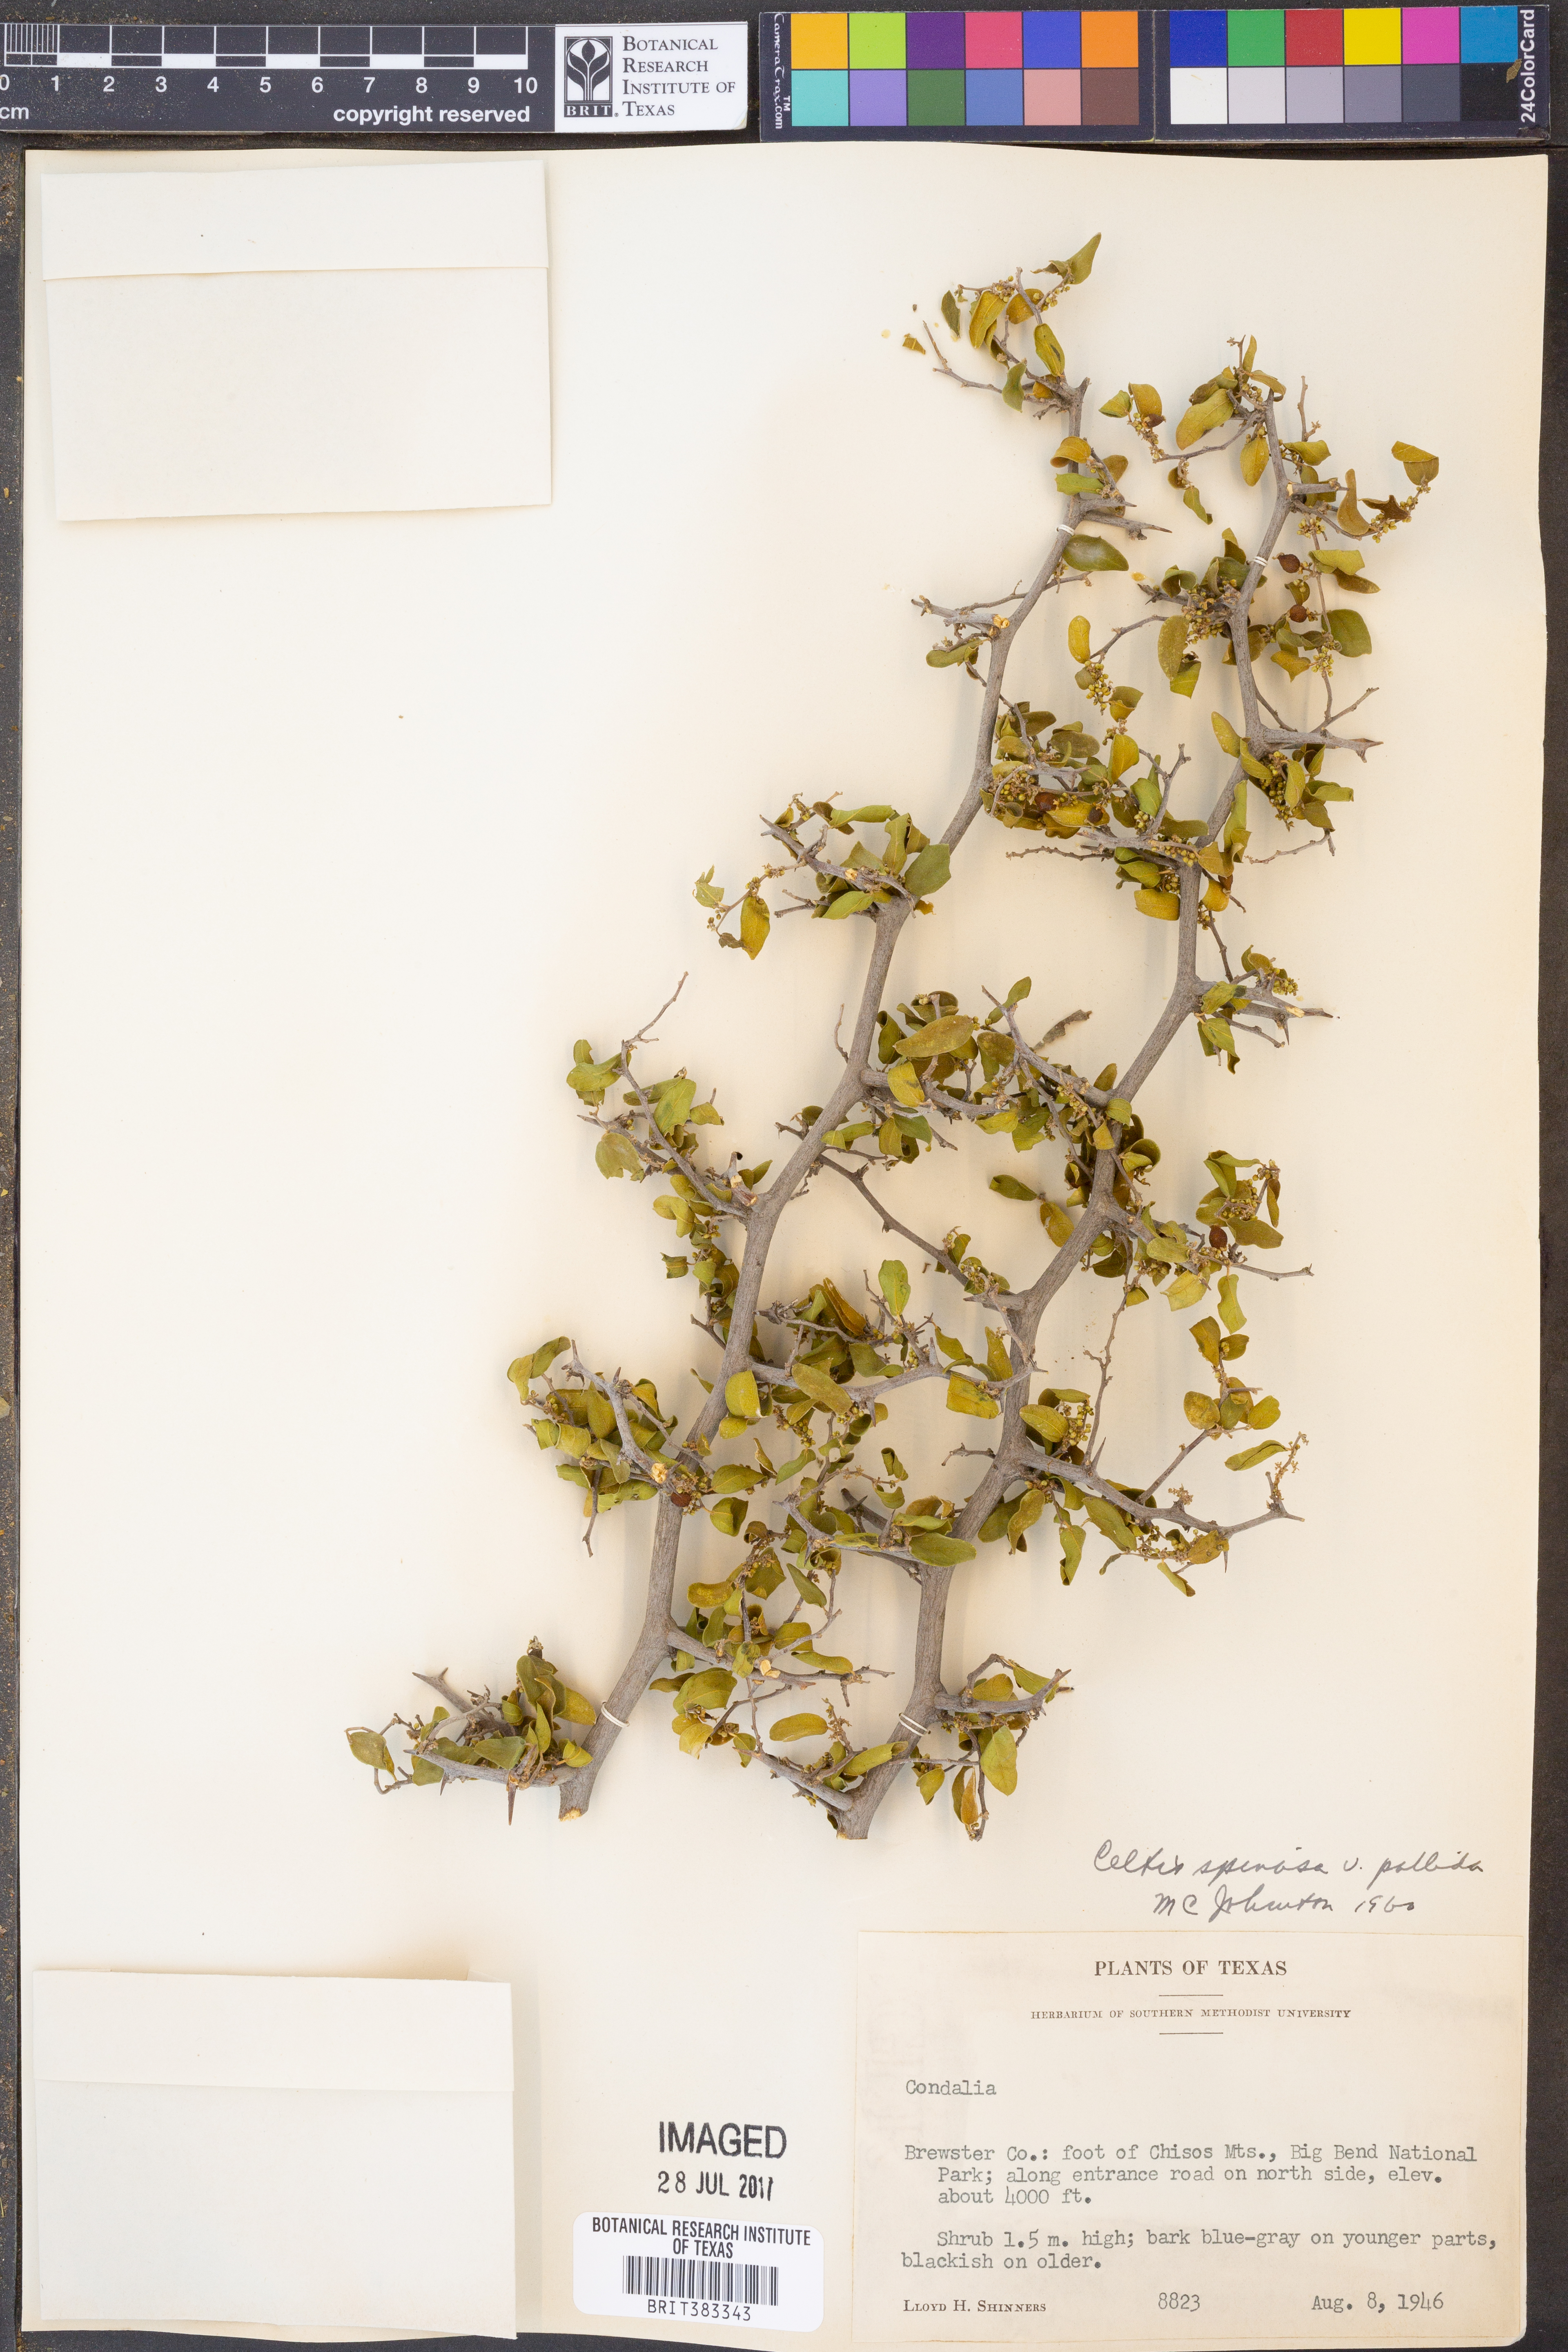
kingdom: Plantae
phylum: Tracheophyta
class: Magnoliopsida
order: Rosales
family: Cannabaceae
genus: Celtis
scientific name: Celtis pallida
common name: Desert hackberry
